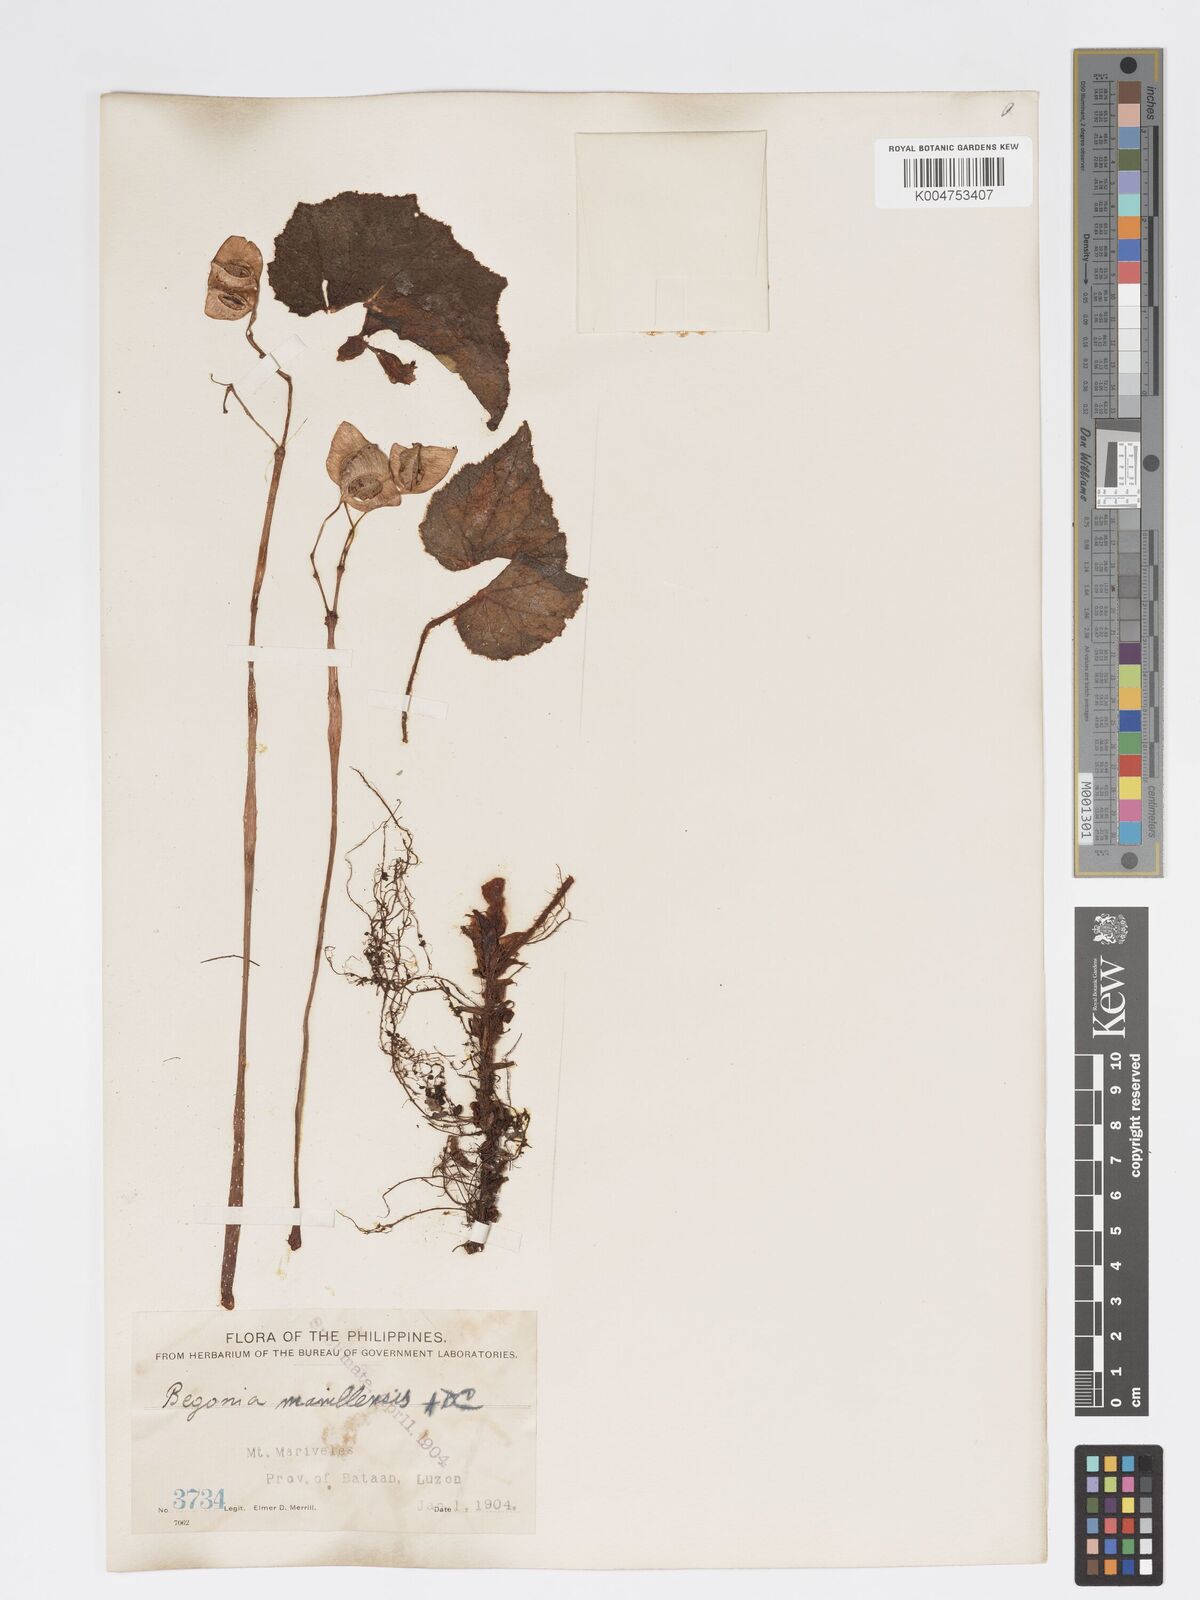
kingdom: Plantae
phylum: Tracheophyta
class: Magnoliopsida
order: Cucurbitales
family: Begoniaceae
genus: Begonia
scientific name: Begonia manillensis
